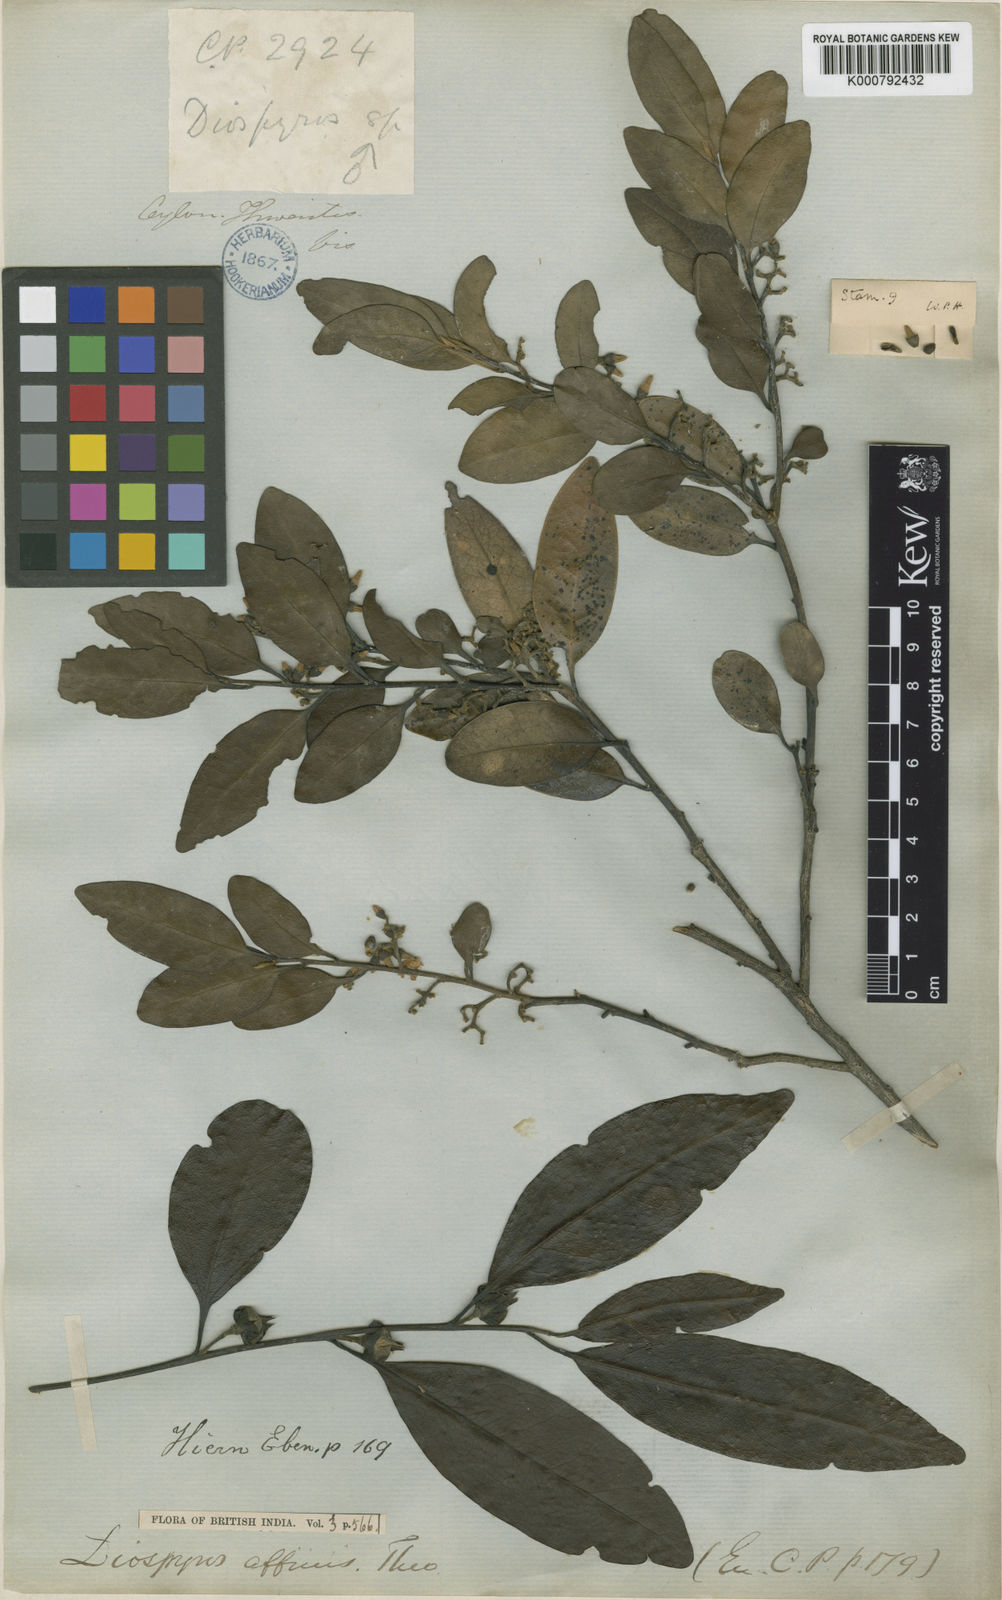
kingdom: Plantae
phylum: Tracheophyta
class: Magnoliopsida
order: Ericales
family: Ebenaceae
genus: Diospyros
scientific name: Diospyros affinis
